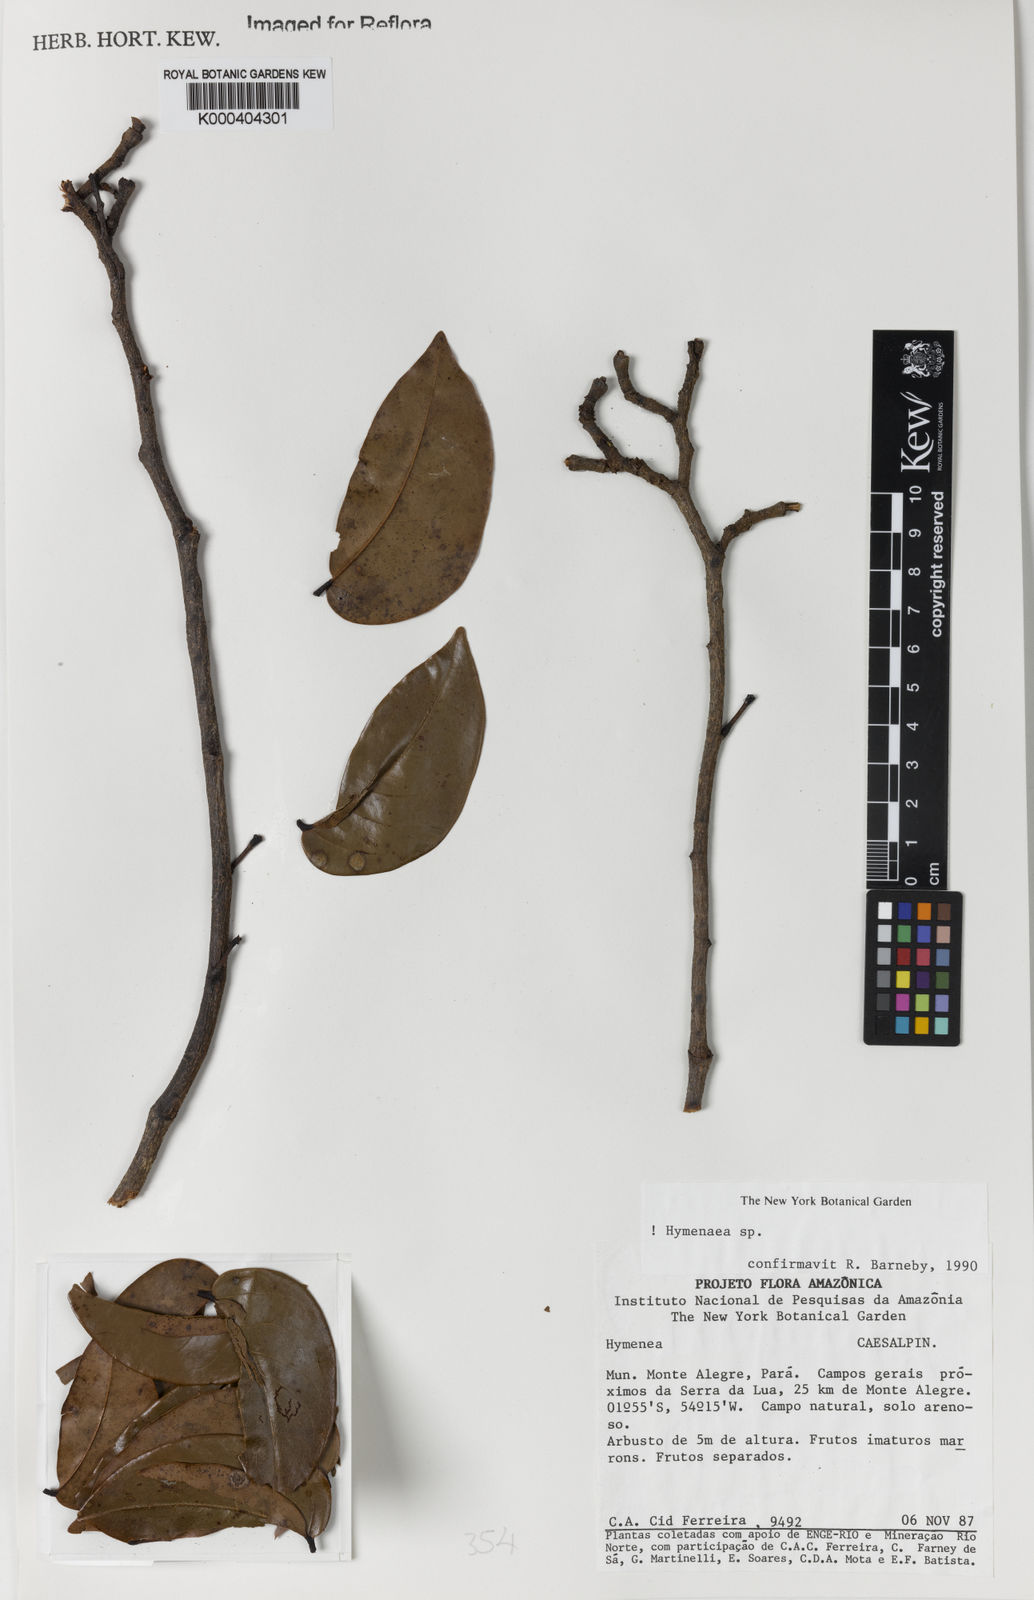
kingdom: Plantae
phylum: Tracheophyta
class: Magnoliopsida
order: Fabales
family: Fabaceae
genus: Hymenaea
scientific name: Hymenaea
